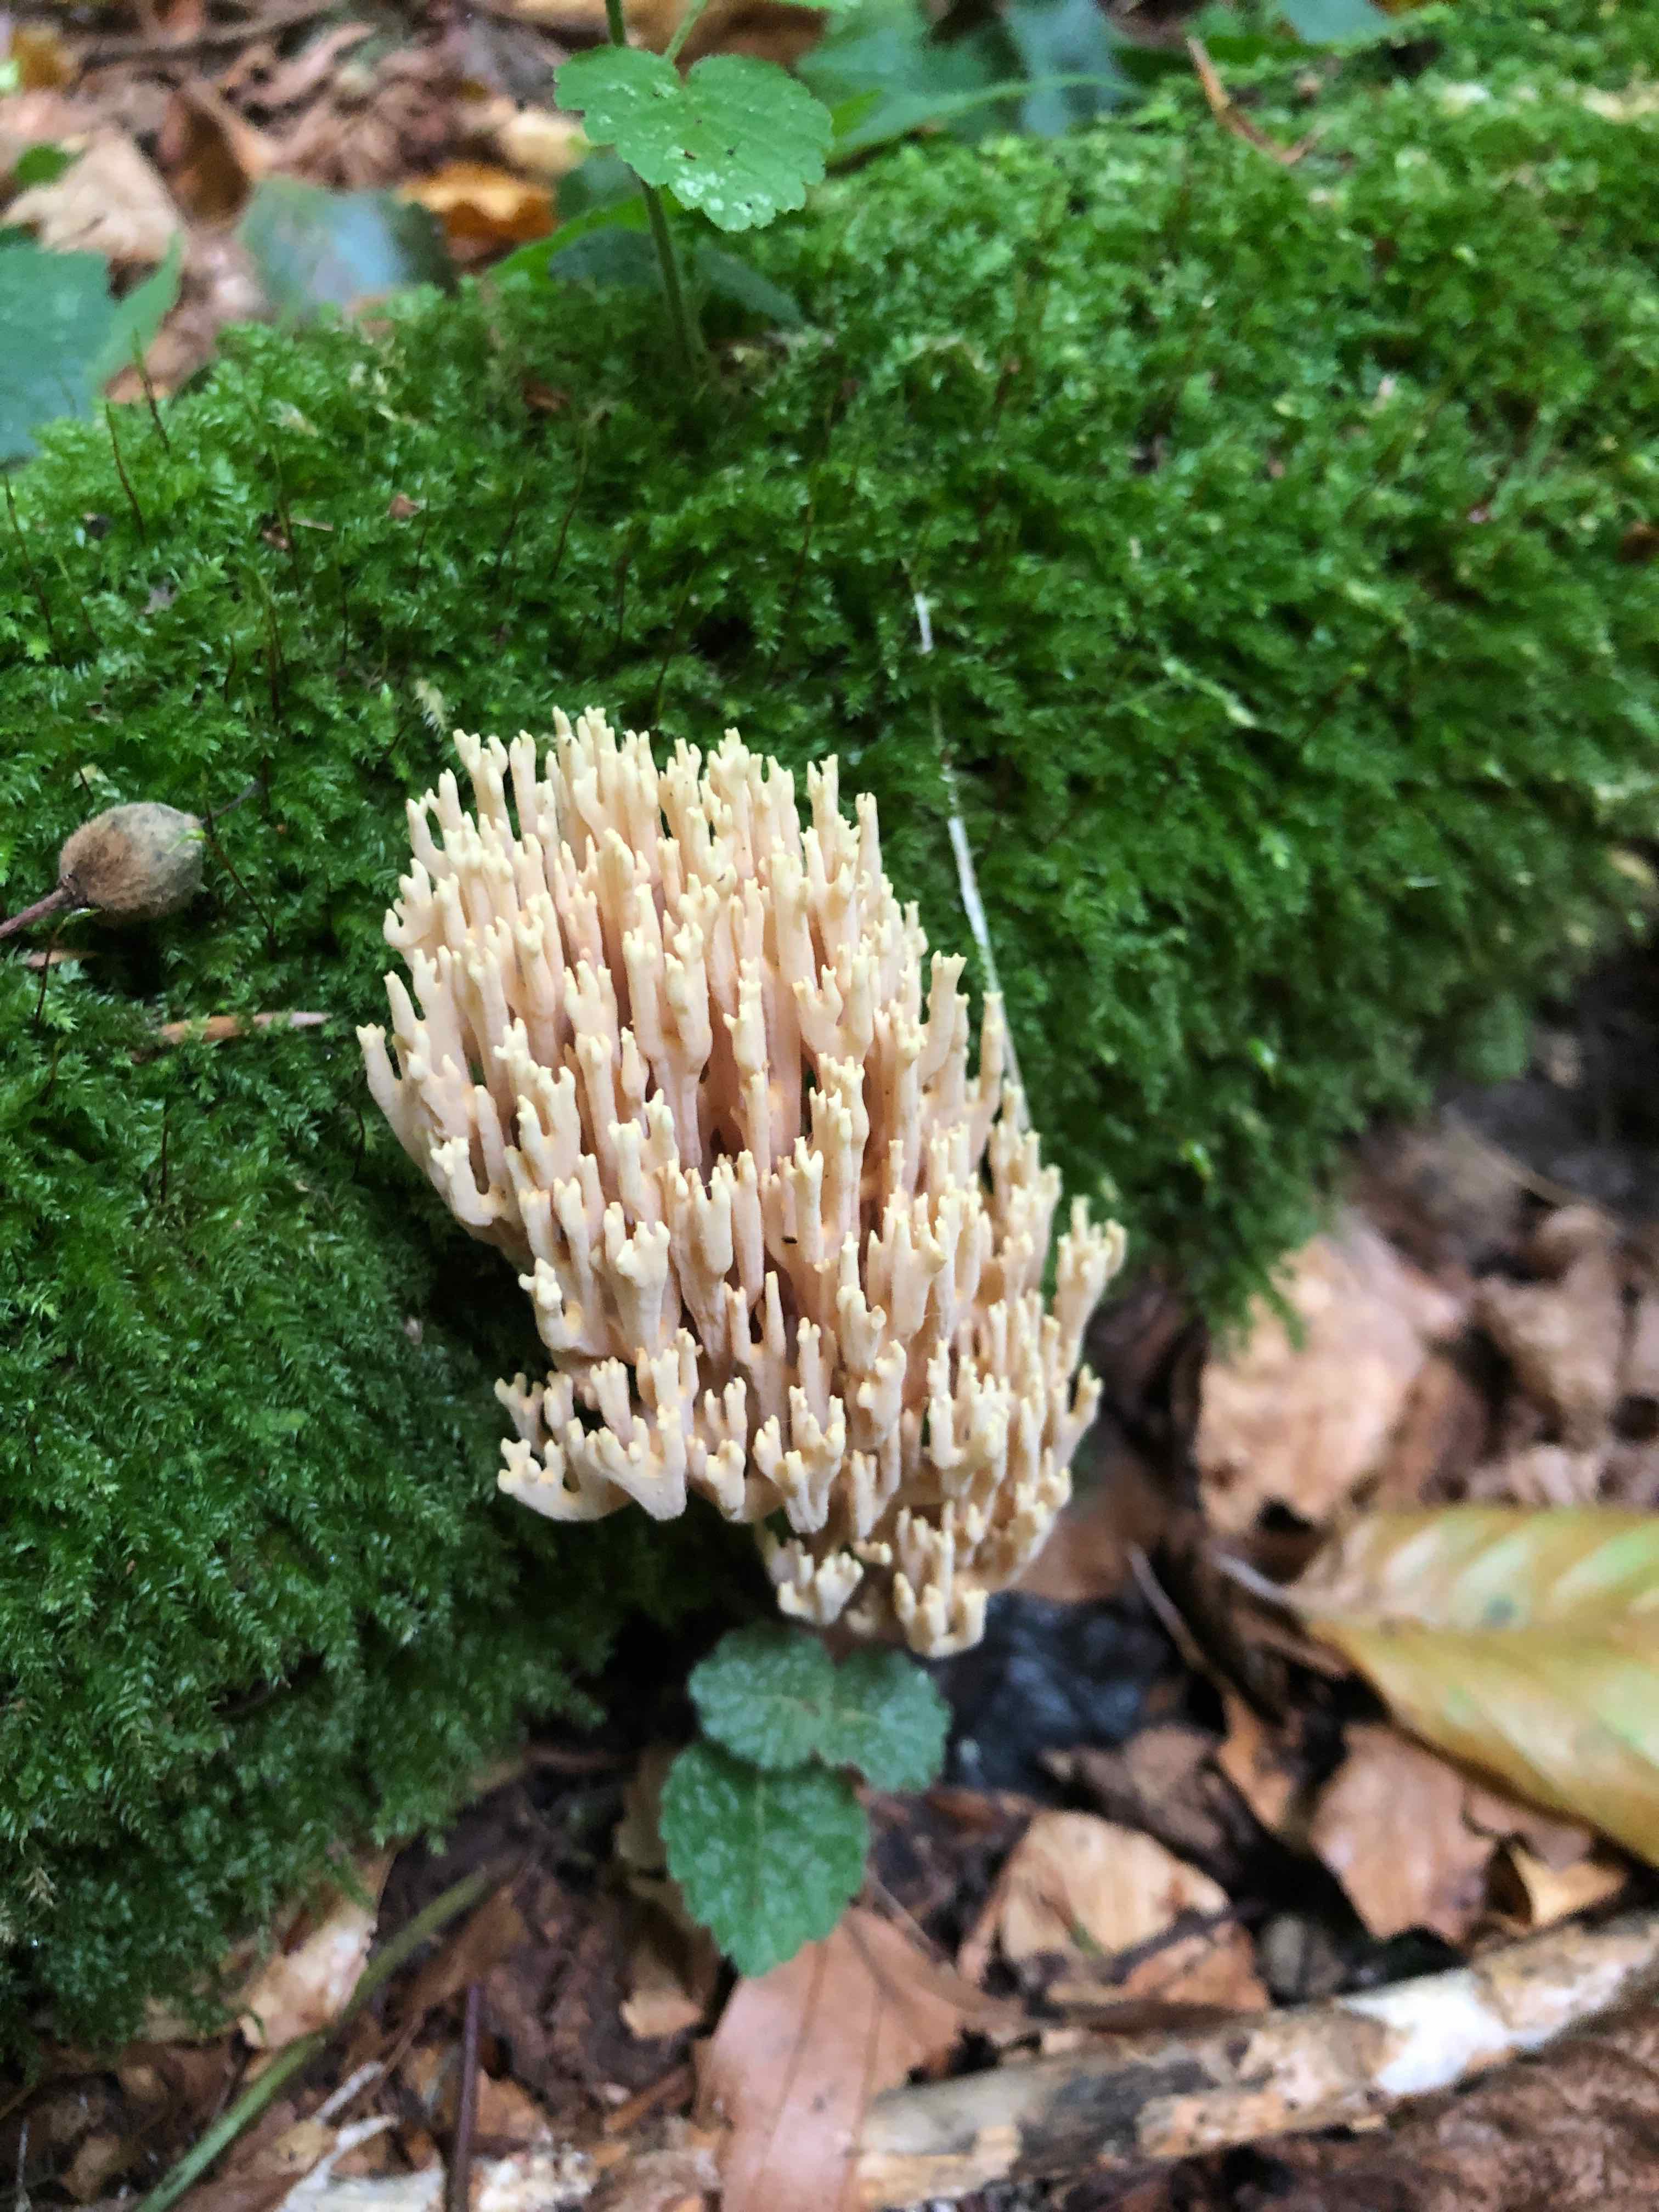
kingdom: Fungi
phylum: Basidiomycota
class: Agaricomycetes
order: Gomphales
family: Gomphaceae
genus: Ramaria
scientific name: Ramaria stricta
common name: rank koralsvamp
